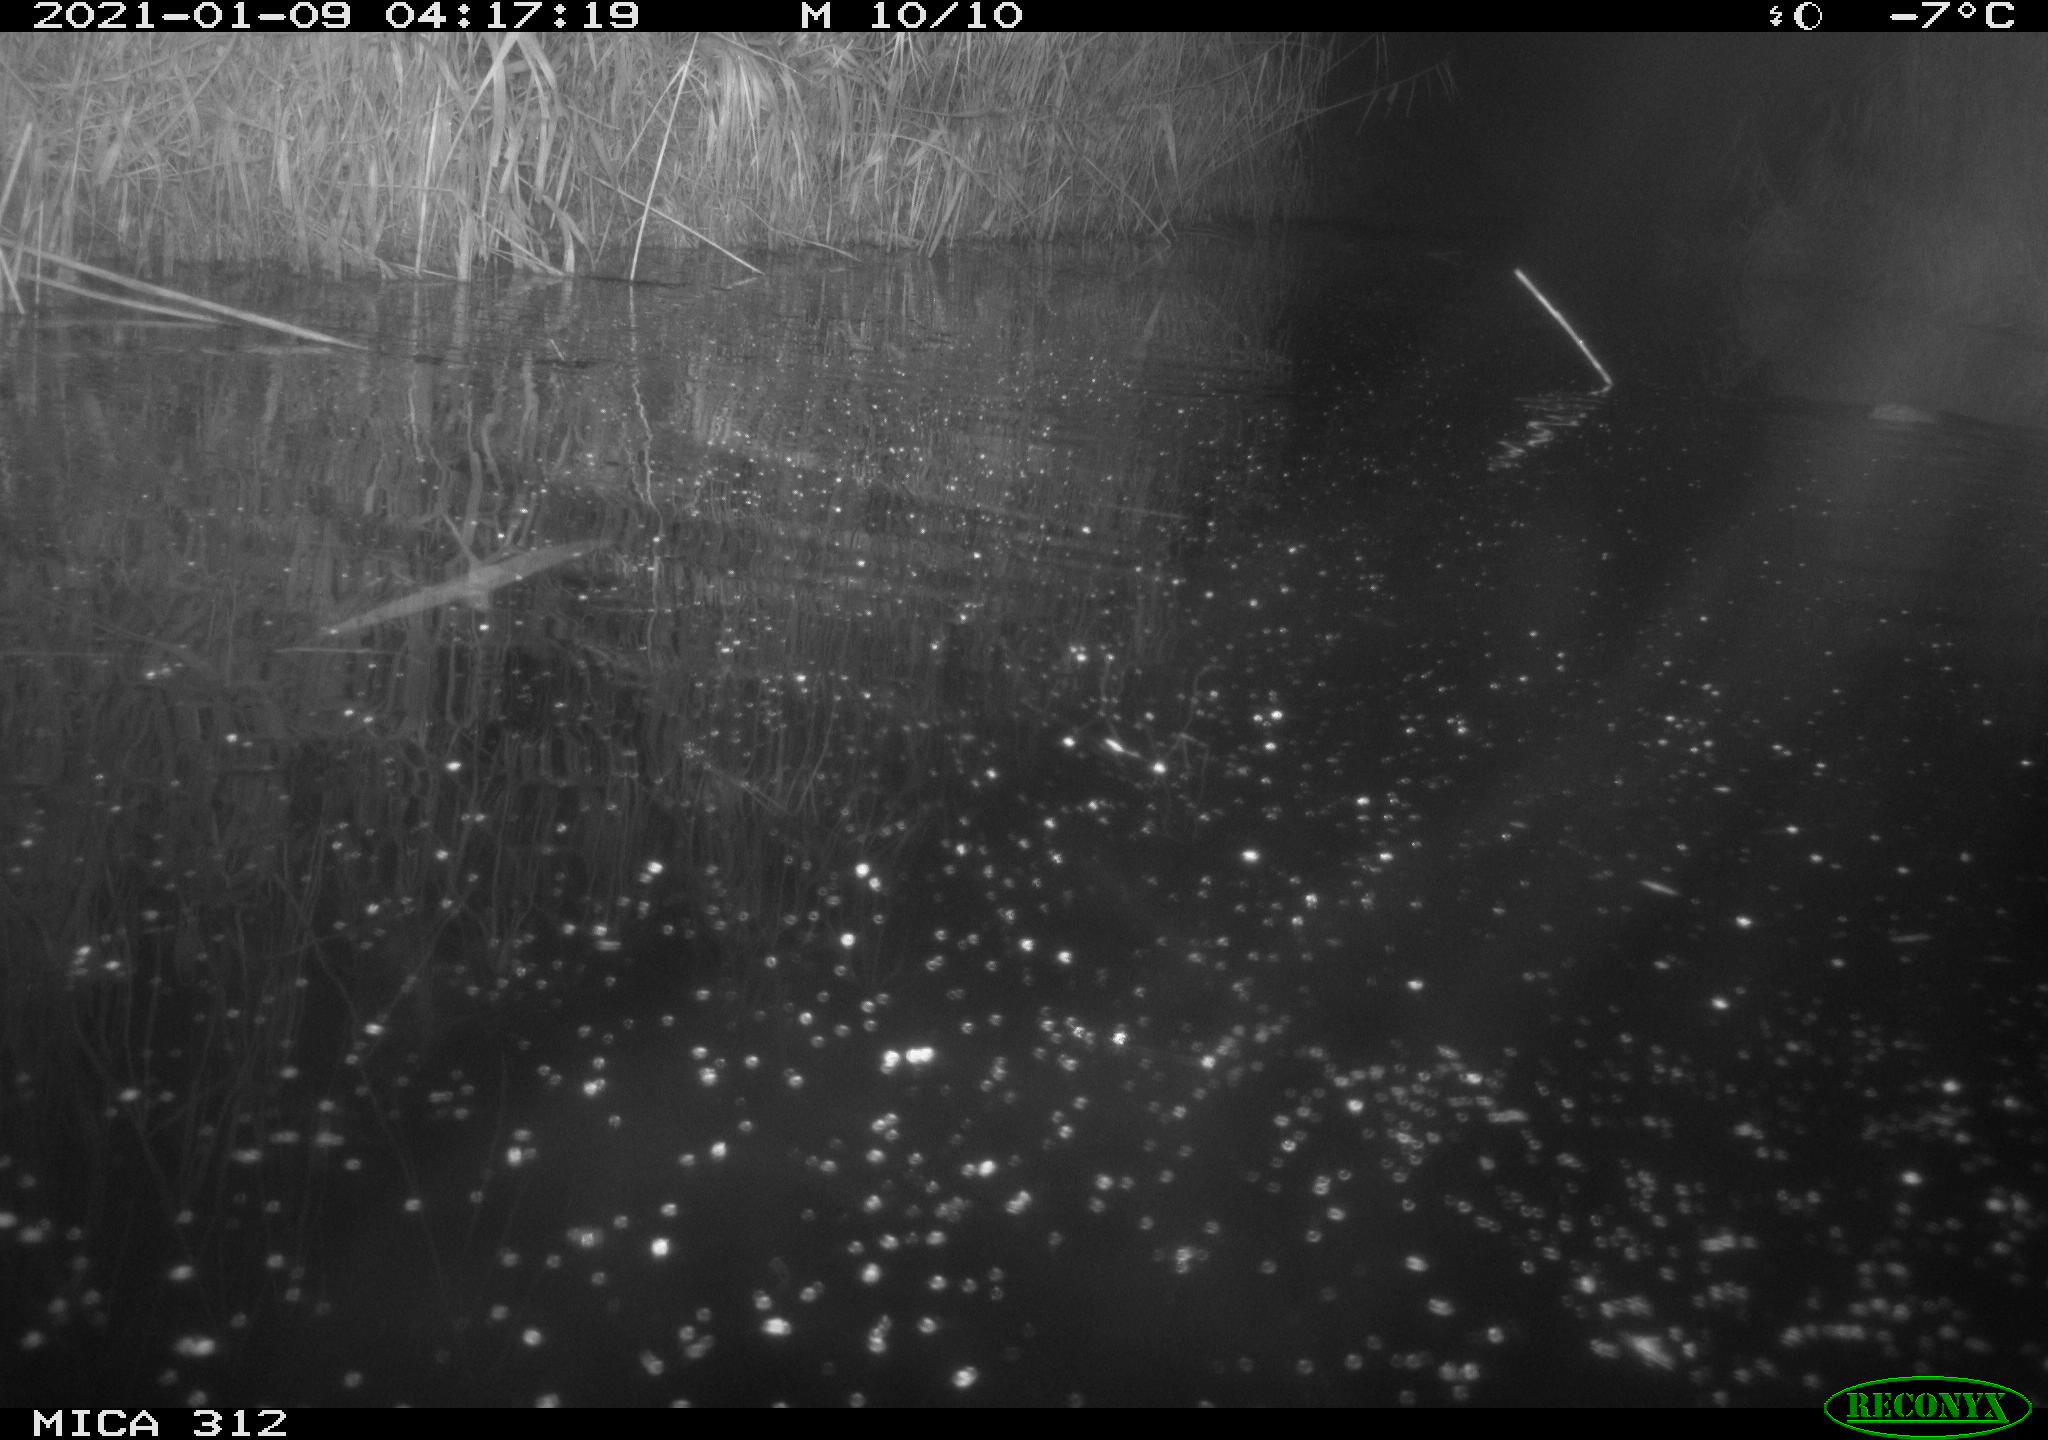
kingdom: Animalia
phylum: Chordata
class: Mammalia
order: Rodentia
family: Muridae
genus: Rattus
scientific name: Rattus norvegicus
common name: Brown rat
